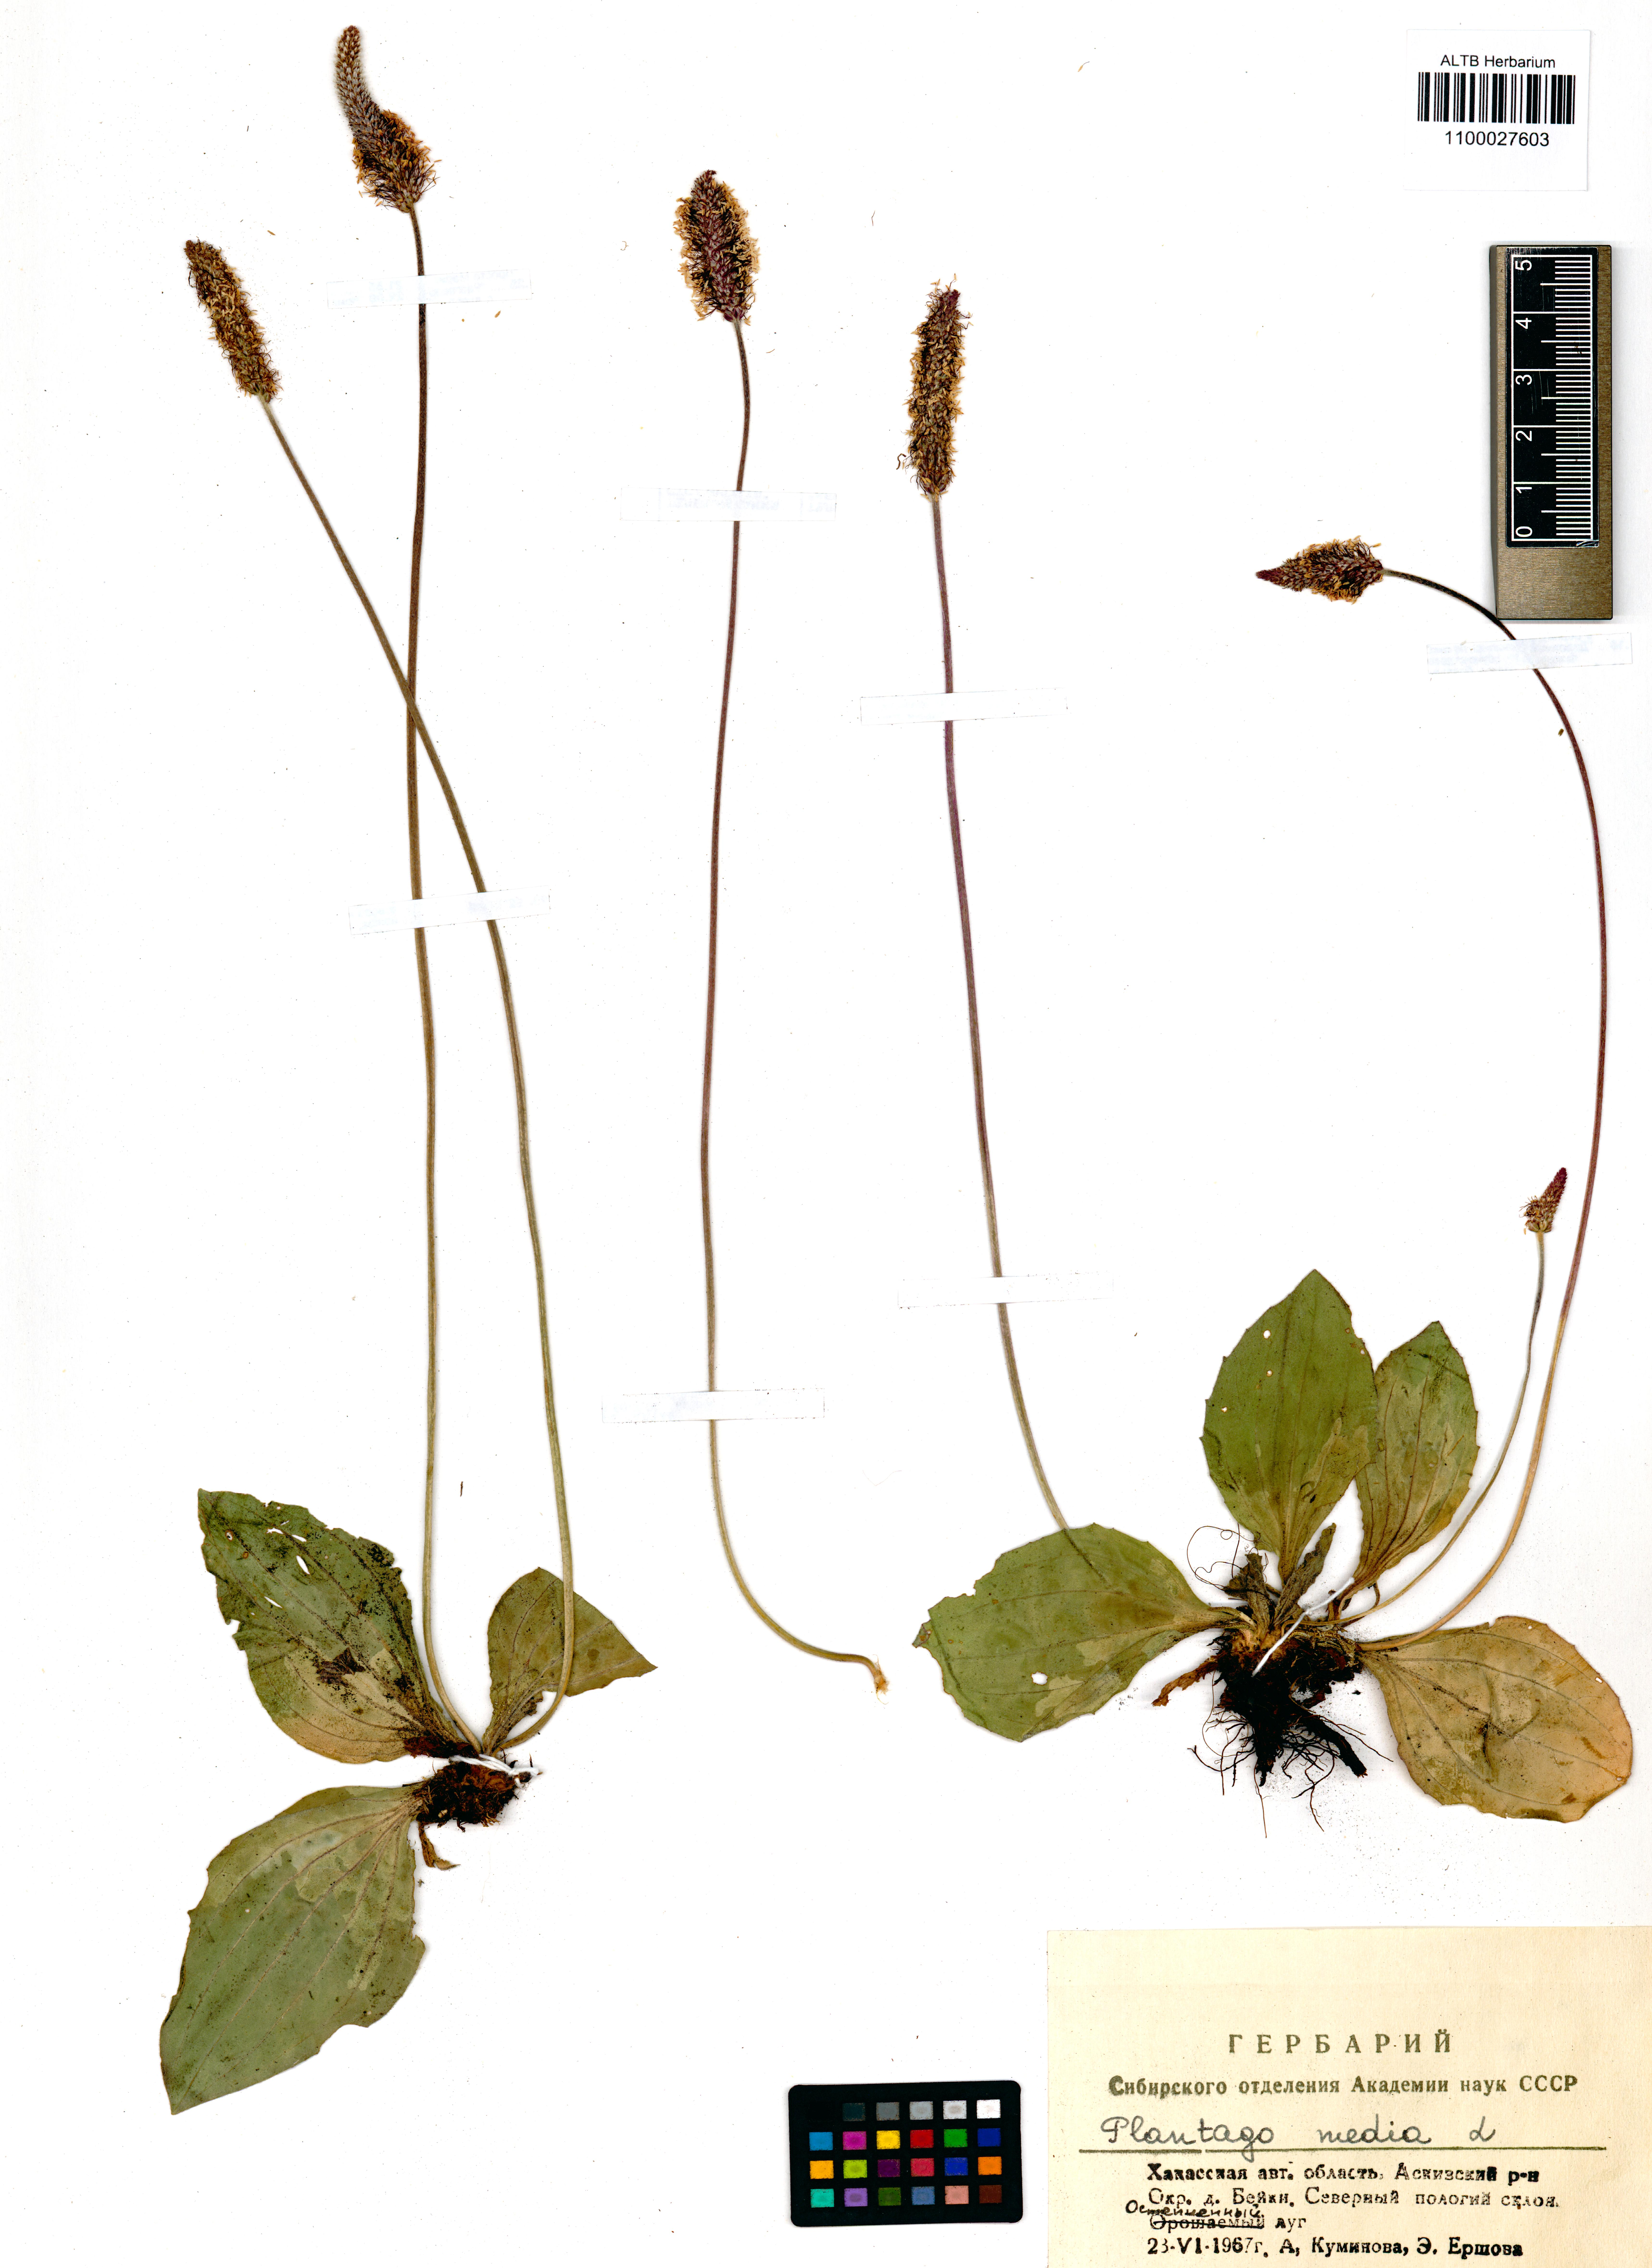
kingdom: Plantae
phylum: Tracheophyta
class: Magnoliopsida
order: Lamiales
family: Plantaginaceae
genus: Plantago
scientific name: Plantago media
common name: Hoary plantain
